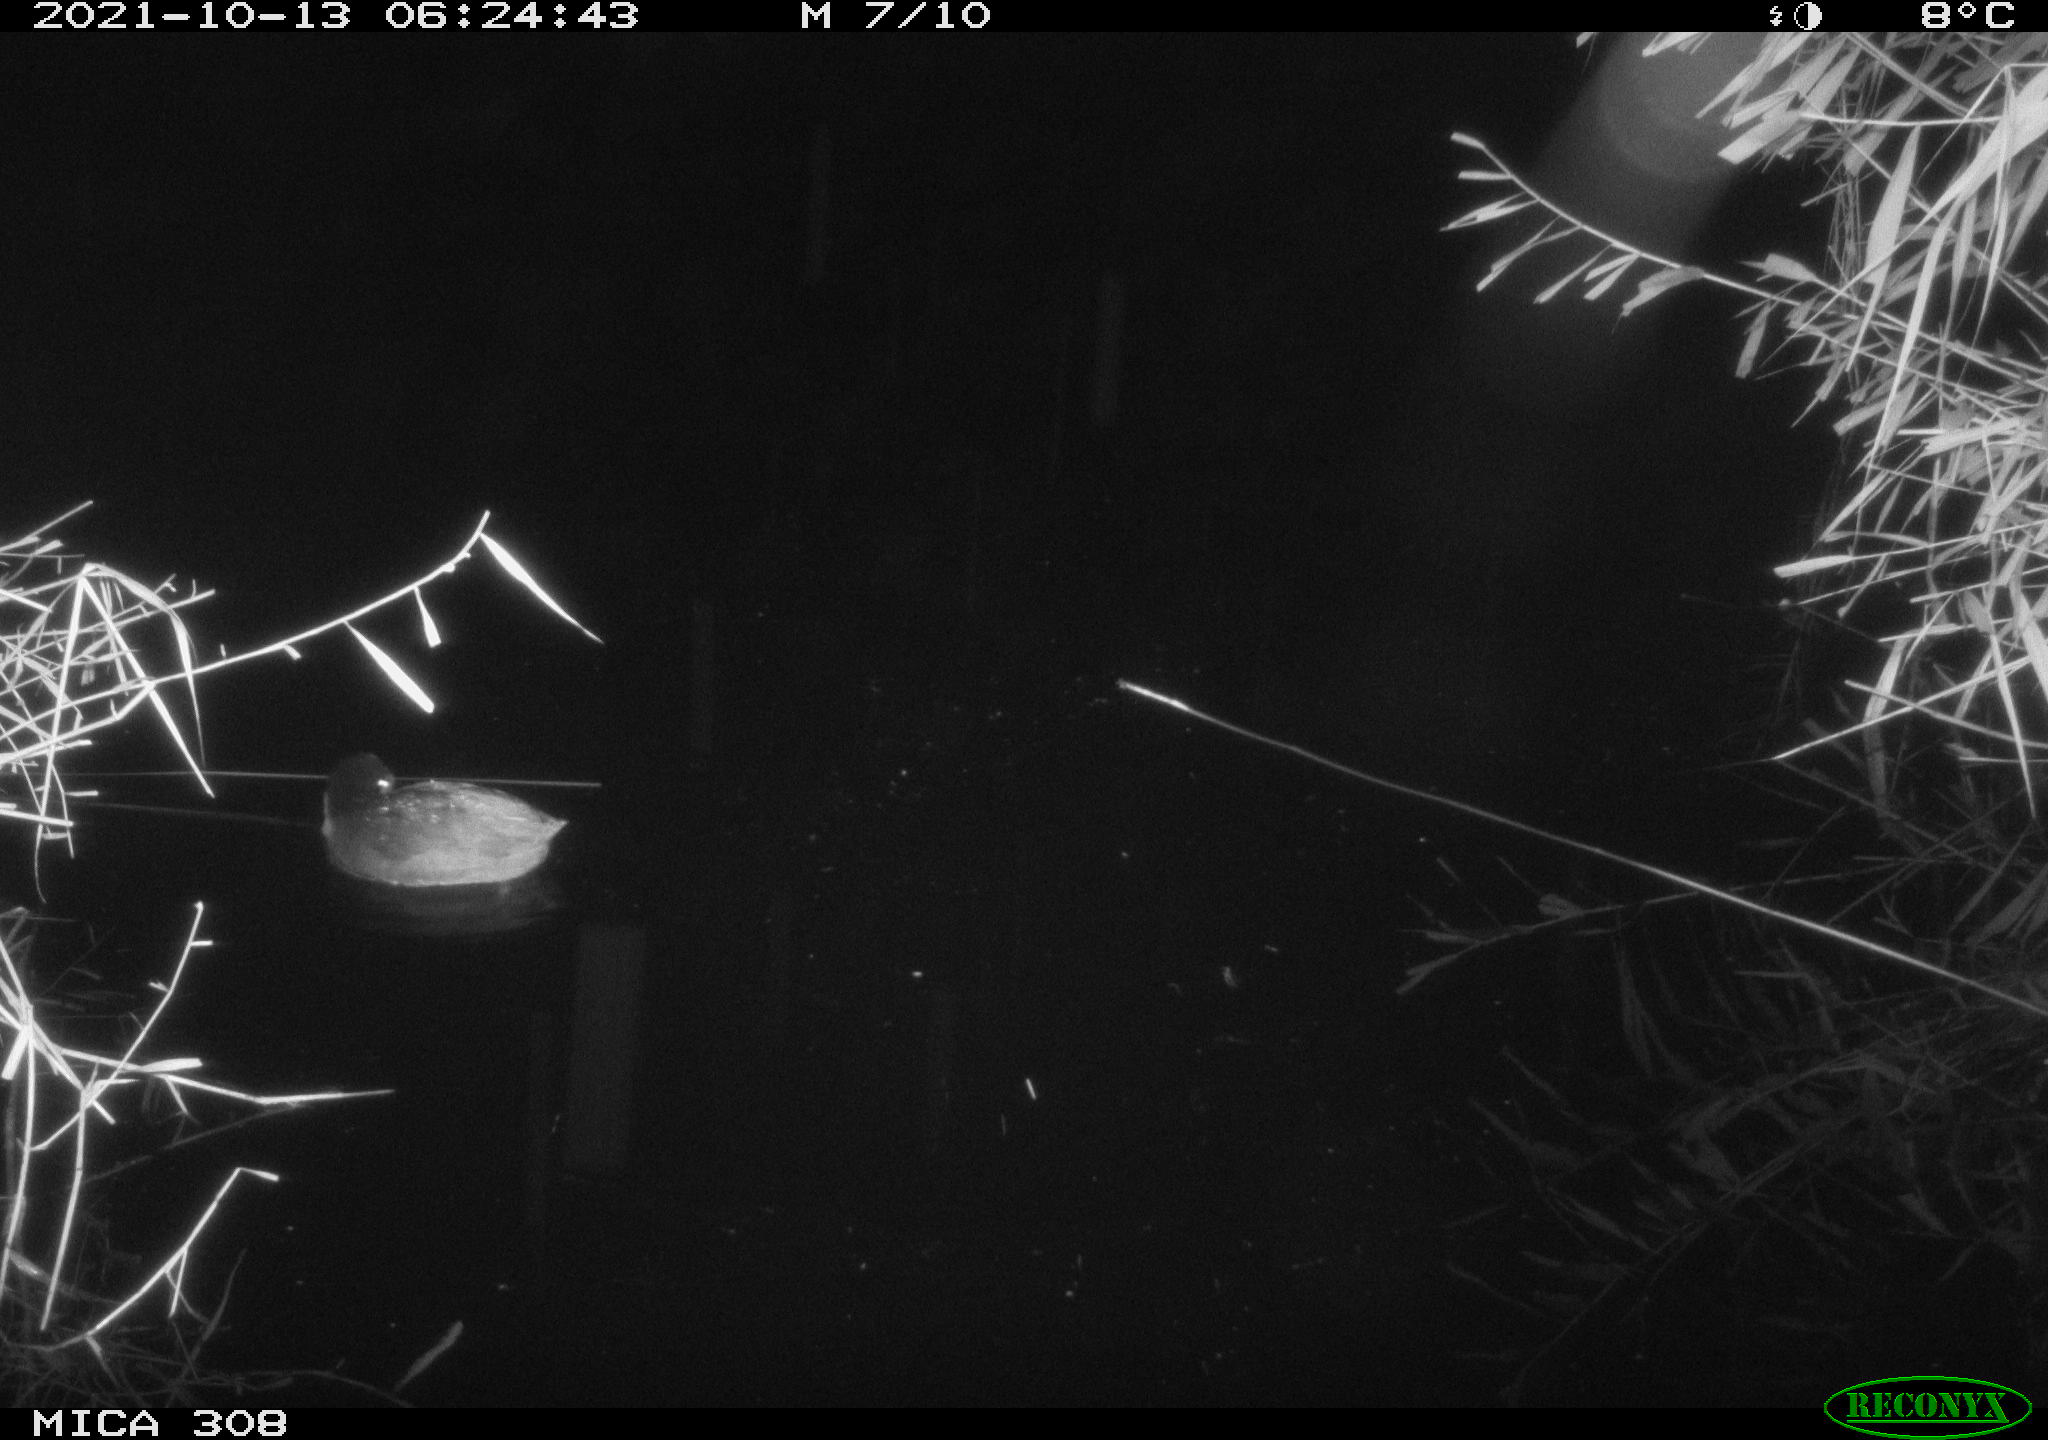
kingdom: Animalia
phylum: Chordata
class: Aves
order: Gruiformes
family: Rallidae
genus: Fulica
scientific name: Fulica atra
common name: Eurasian coot
